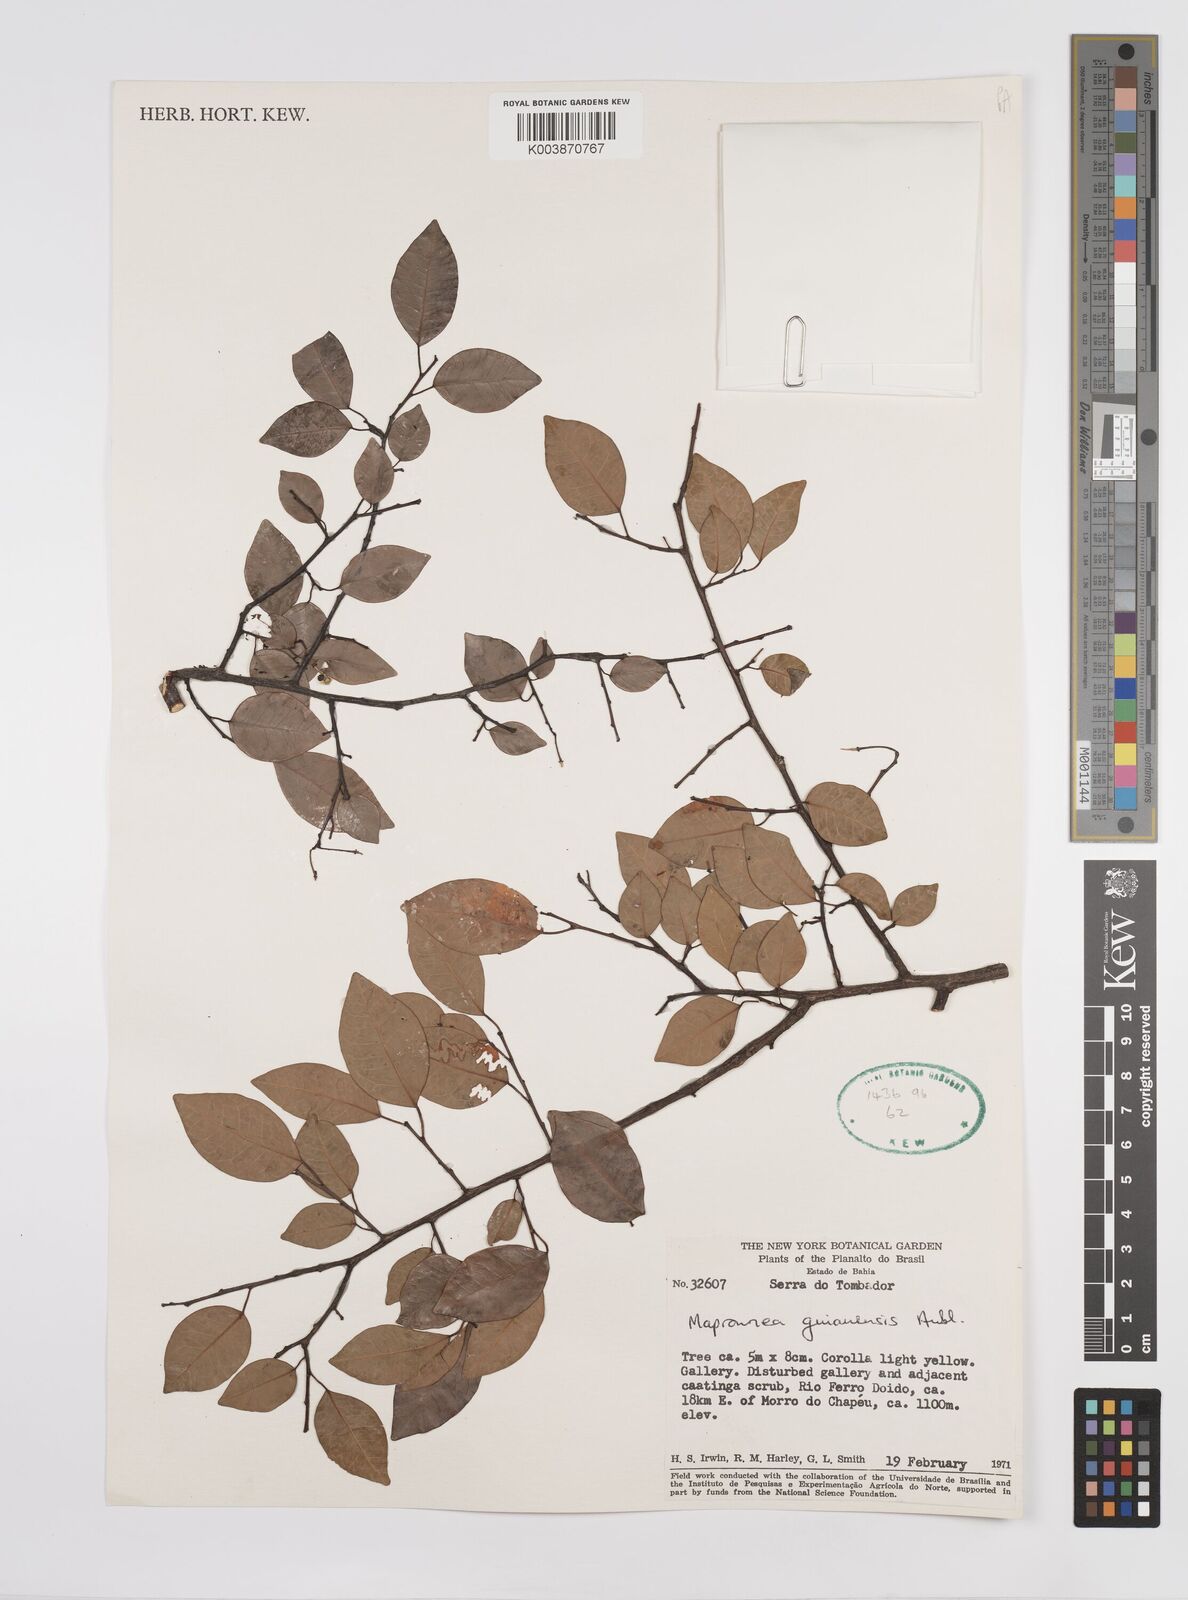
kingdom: Plantae
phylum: Tracheophyta
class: Magnoliopsida
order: Malpighiales
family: Euphorbiaceae
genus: Maprounea
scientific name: Maprounea guianensis
